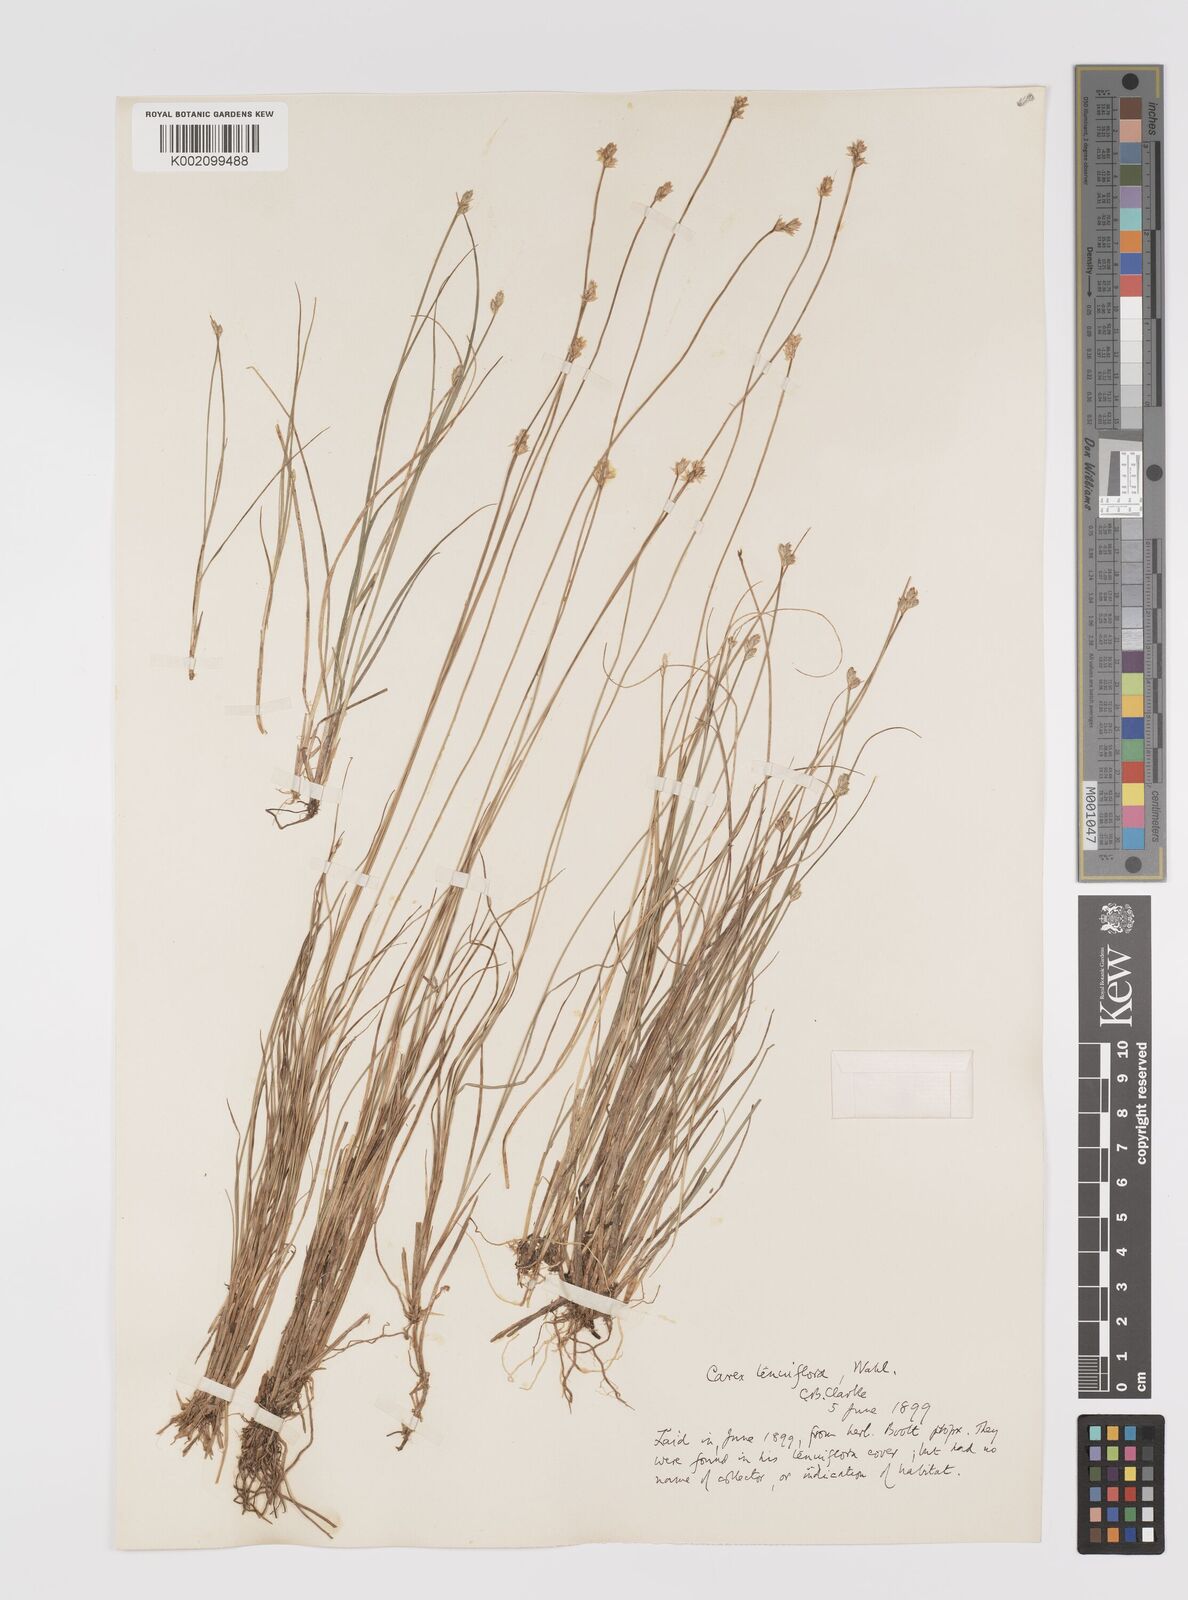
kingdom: Plantae
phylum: Tracheophyta
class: Liliopsida
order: Poales
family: Cyperaceae
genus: Carex
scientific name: Carex tenuiflora
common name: Sparse-flowered sedge
